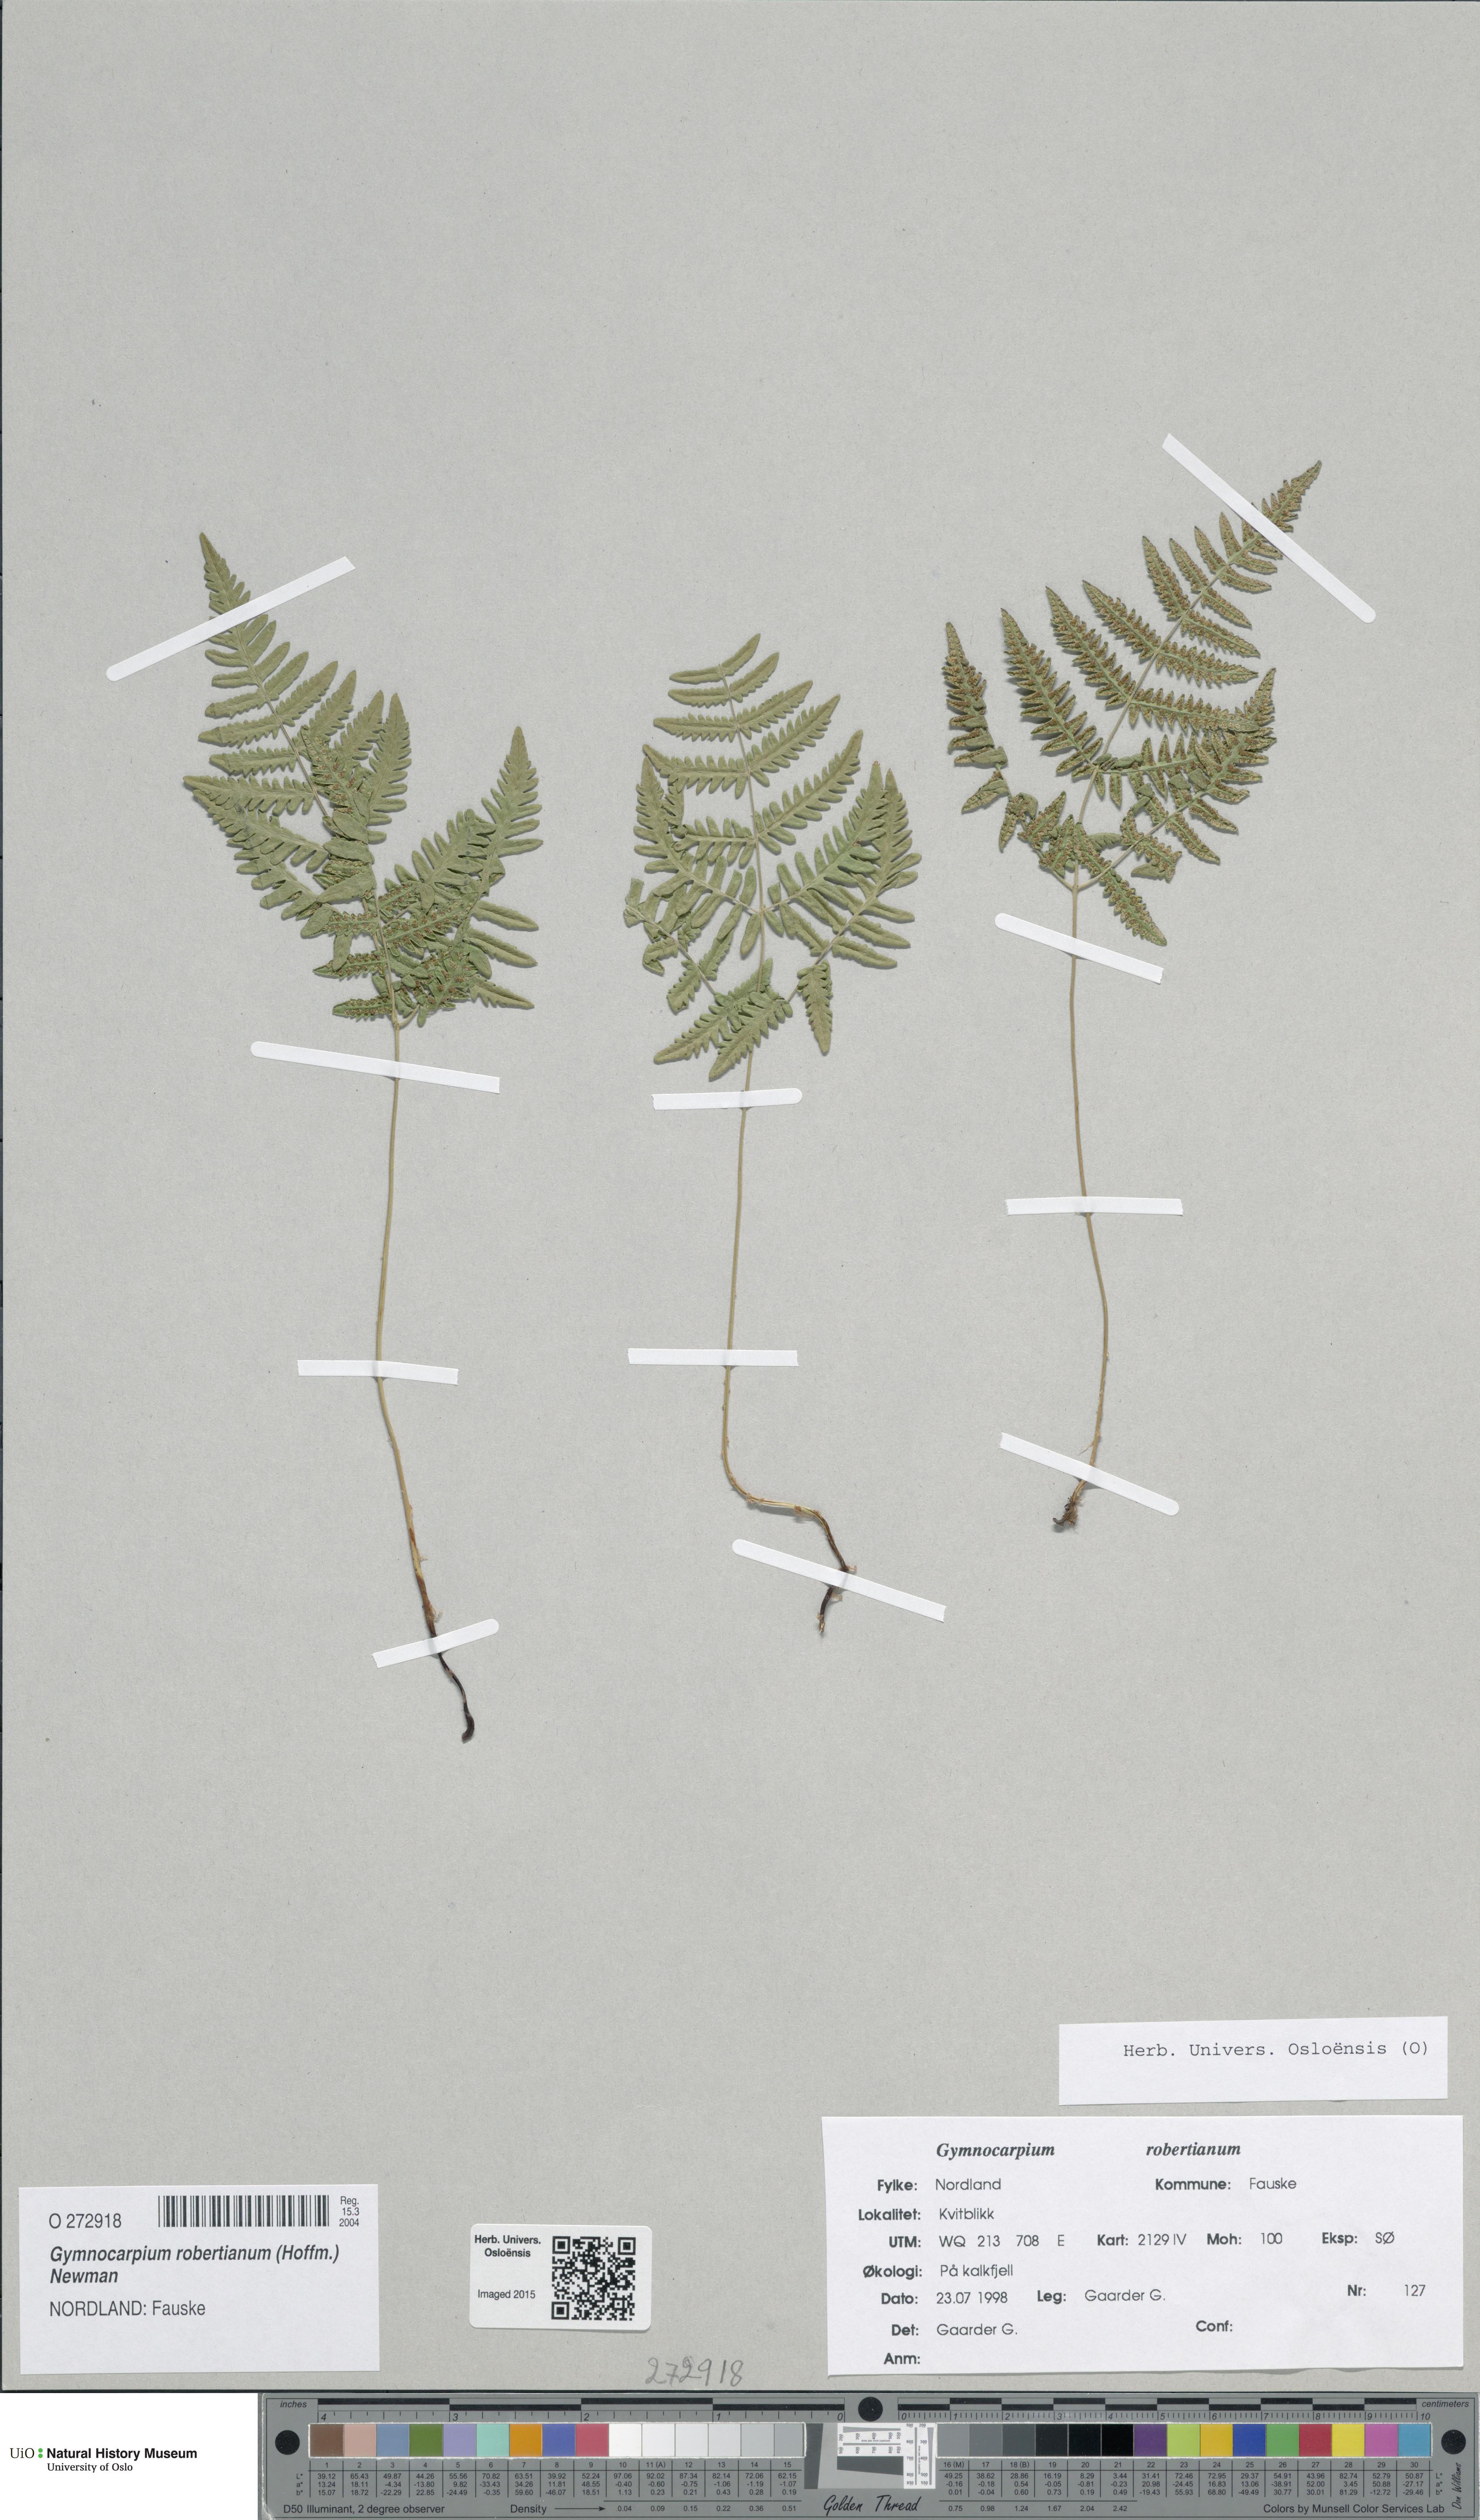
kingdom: Plantae
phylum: Tracheophyta
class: Polypodiopsida
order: Polypodiales
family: Cystopteridaceae
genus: Gymnocarpium
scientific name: Gymnocarpium robertianum
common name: Limestone fern
